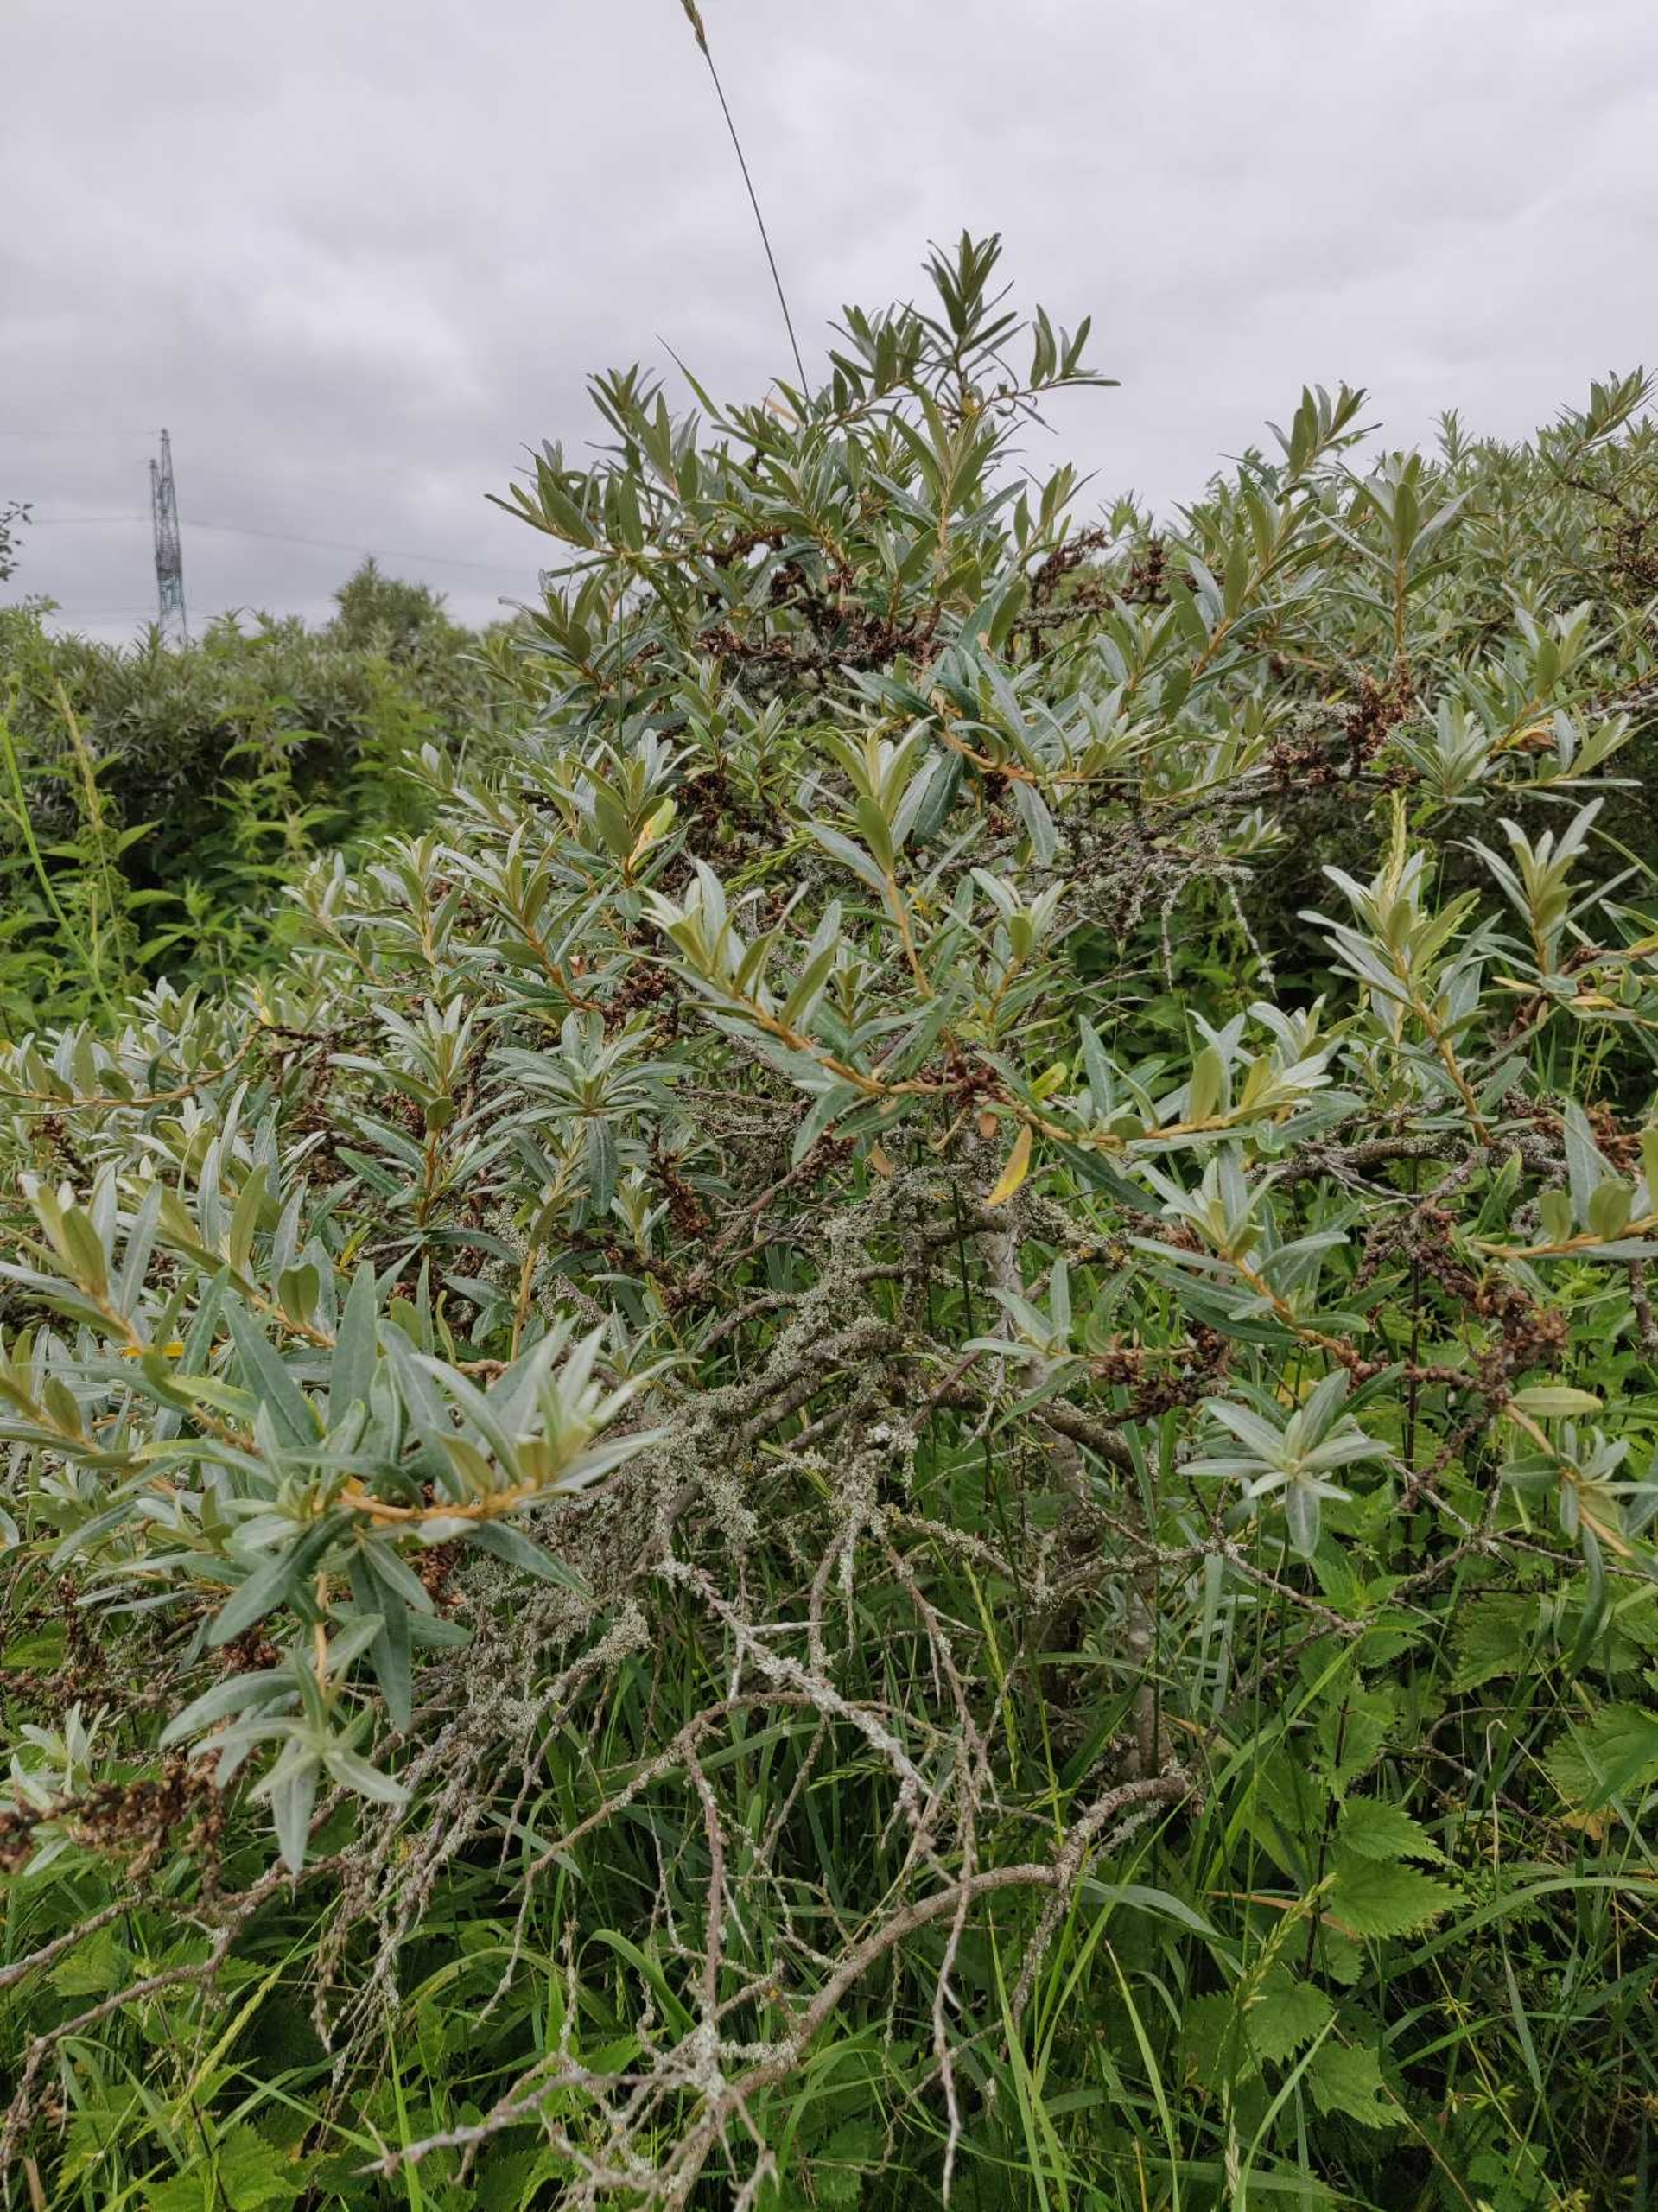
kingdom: Plantae
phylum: Tracheophyta
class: Magnoliopsida
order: Rosales
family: Elaeagnaceae
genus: Hippophae
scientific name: Hippophae rhamnoides
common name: Havtorn
